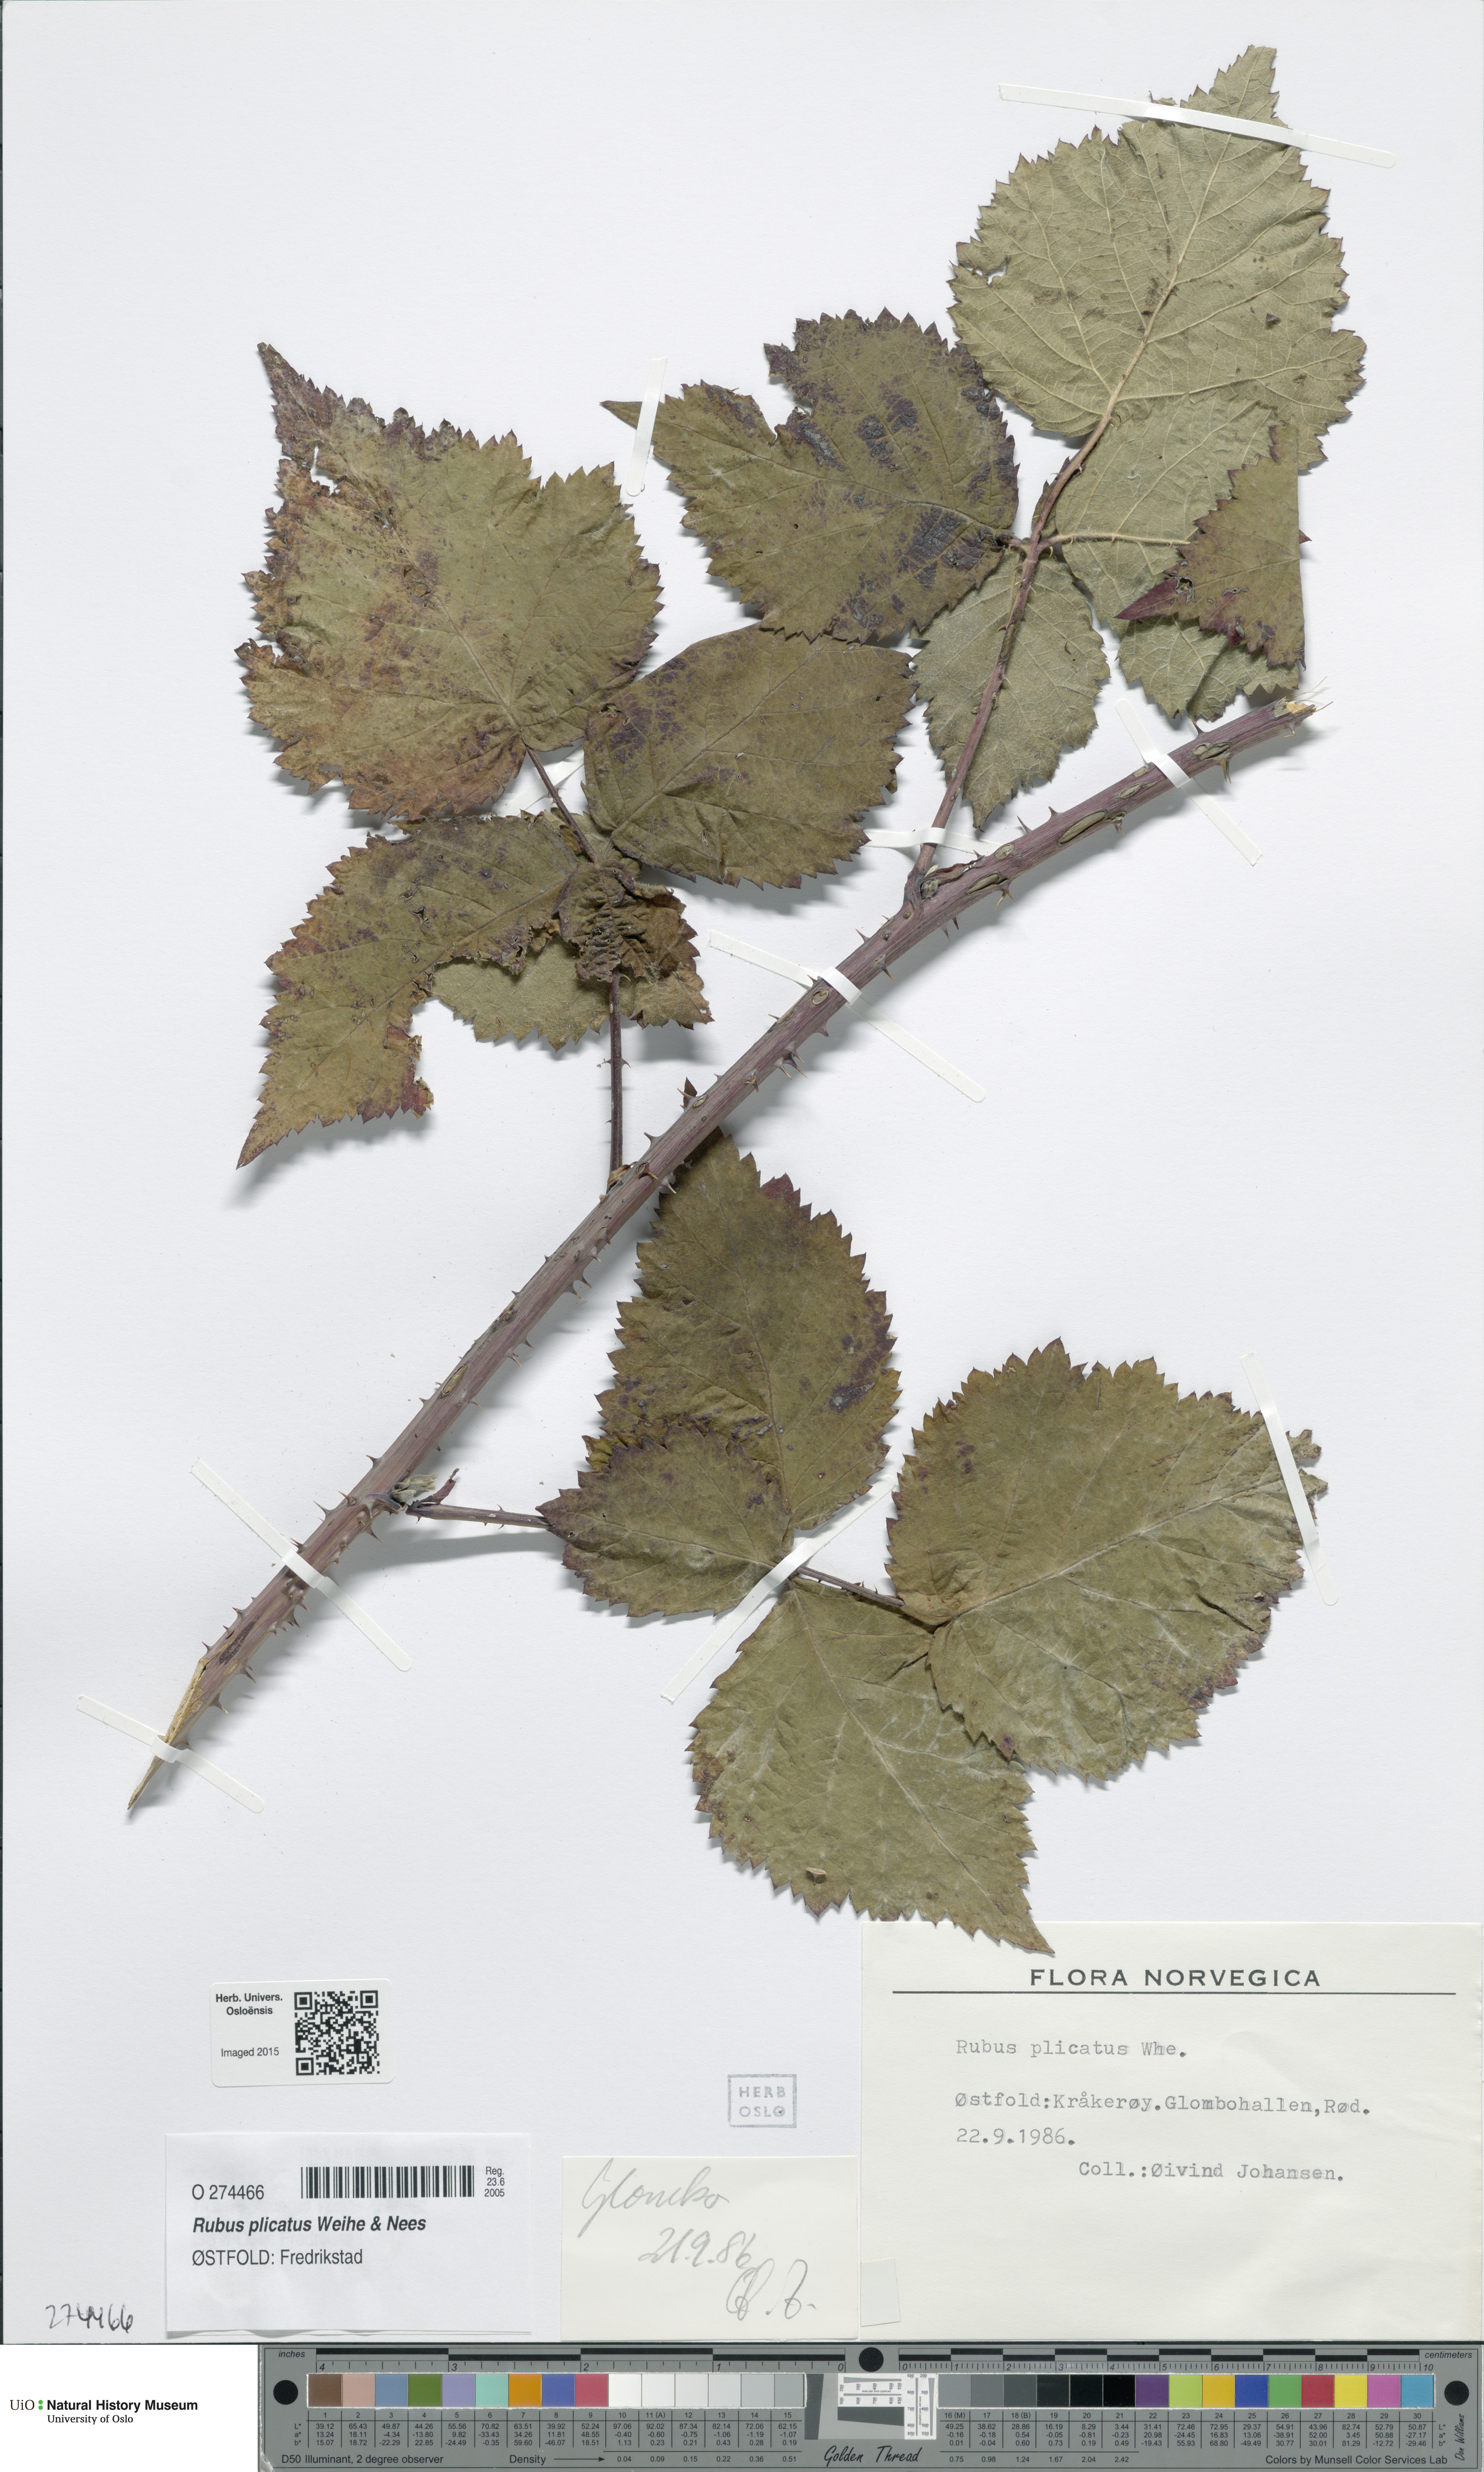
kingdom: Plantae
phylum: Tracheophyta
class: Magnoliopsida
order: Rosales
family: Rosaceae
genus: Rubus
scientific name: Rubus fruticosus
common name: Blackberry, bramble
